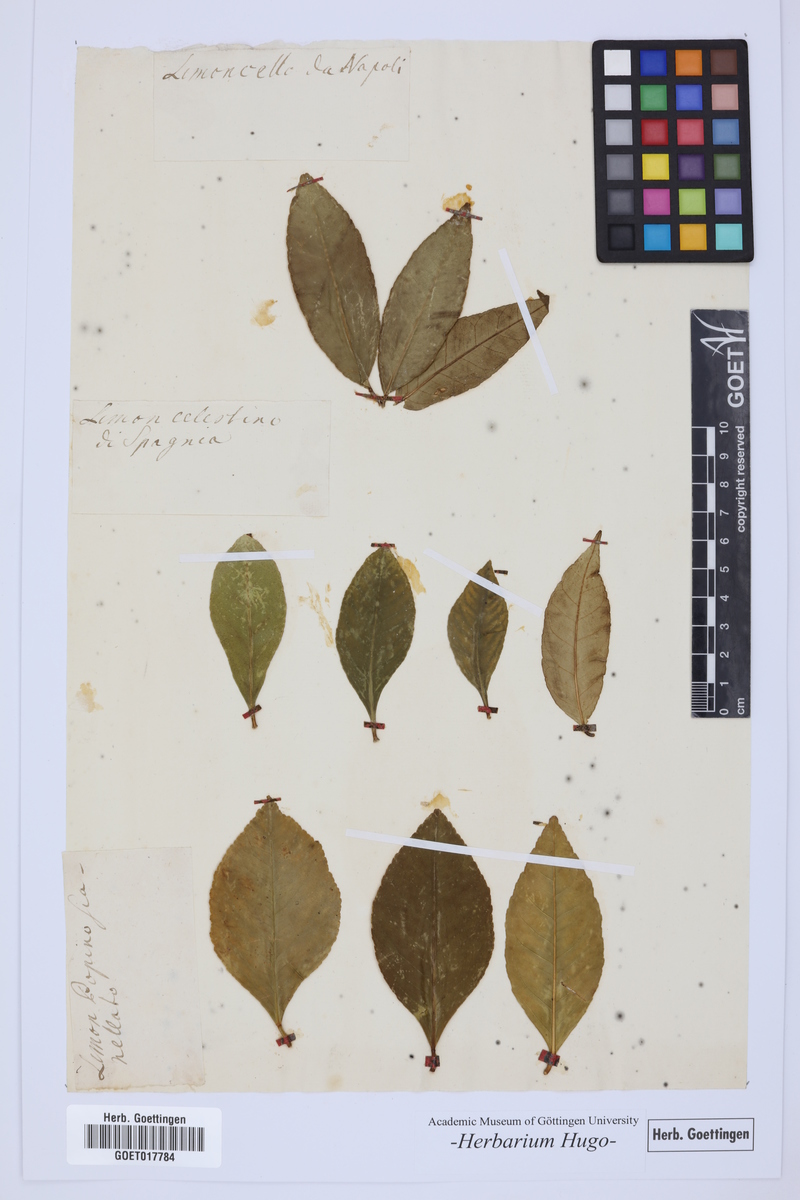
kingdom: Plantae
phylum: Tracheophyta
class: Magnoliopsida
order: Sapindales
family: Rutaceae
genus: Citrus
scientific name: Citrus
